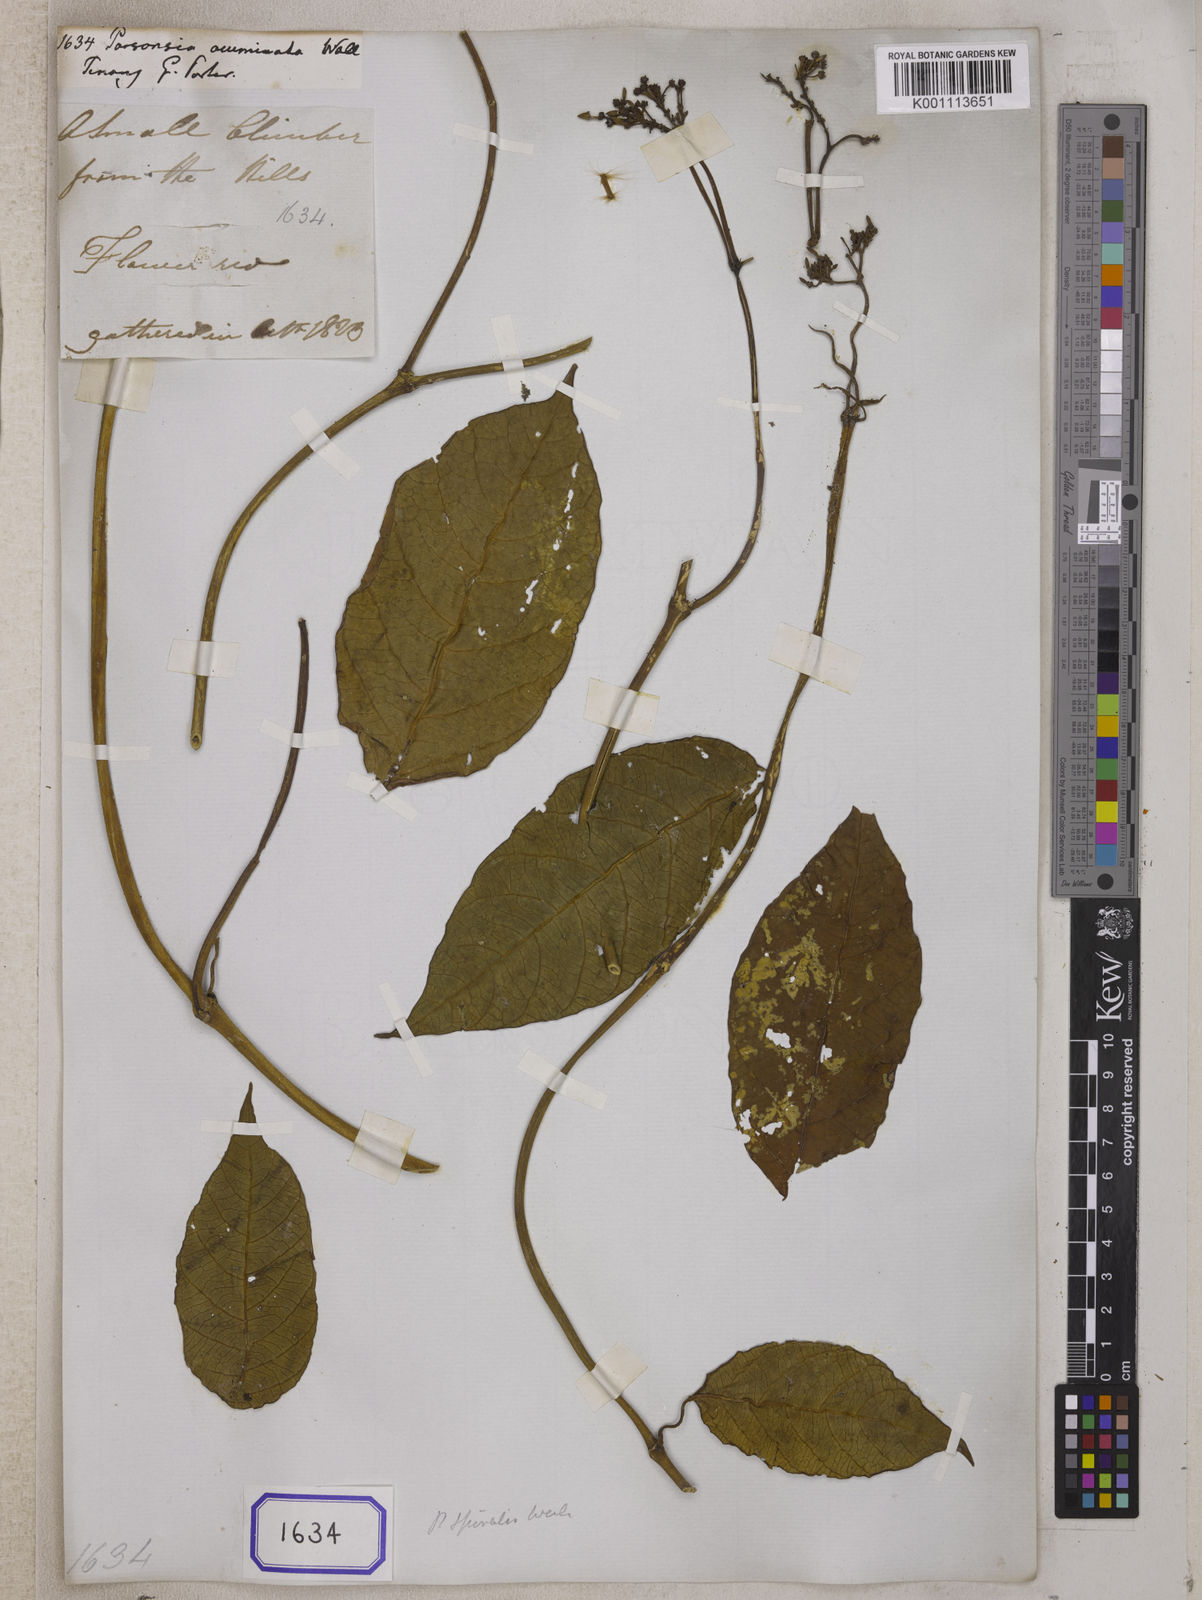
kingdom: Plantae
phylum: Tracheophyta
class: Magnoliopsida
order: Gentianales
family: Apocynaceae
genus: Parsonsia
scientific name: Parsonsia alboflavescens
